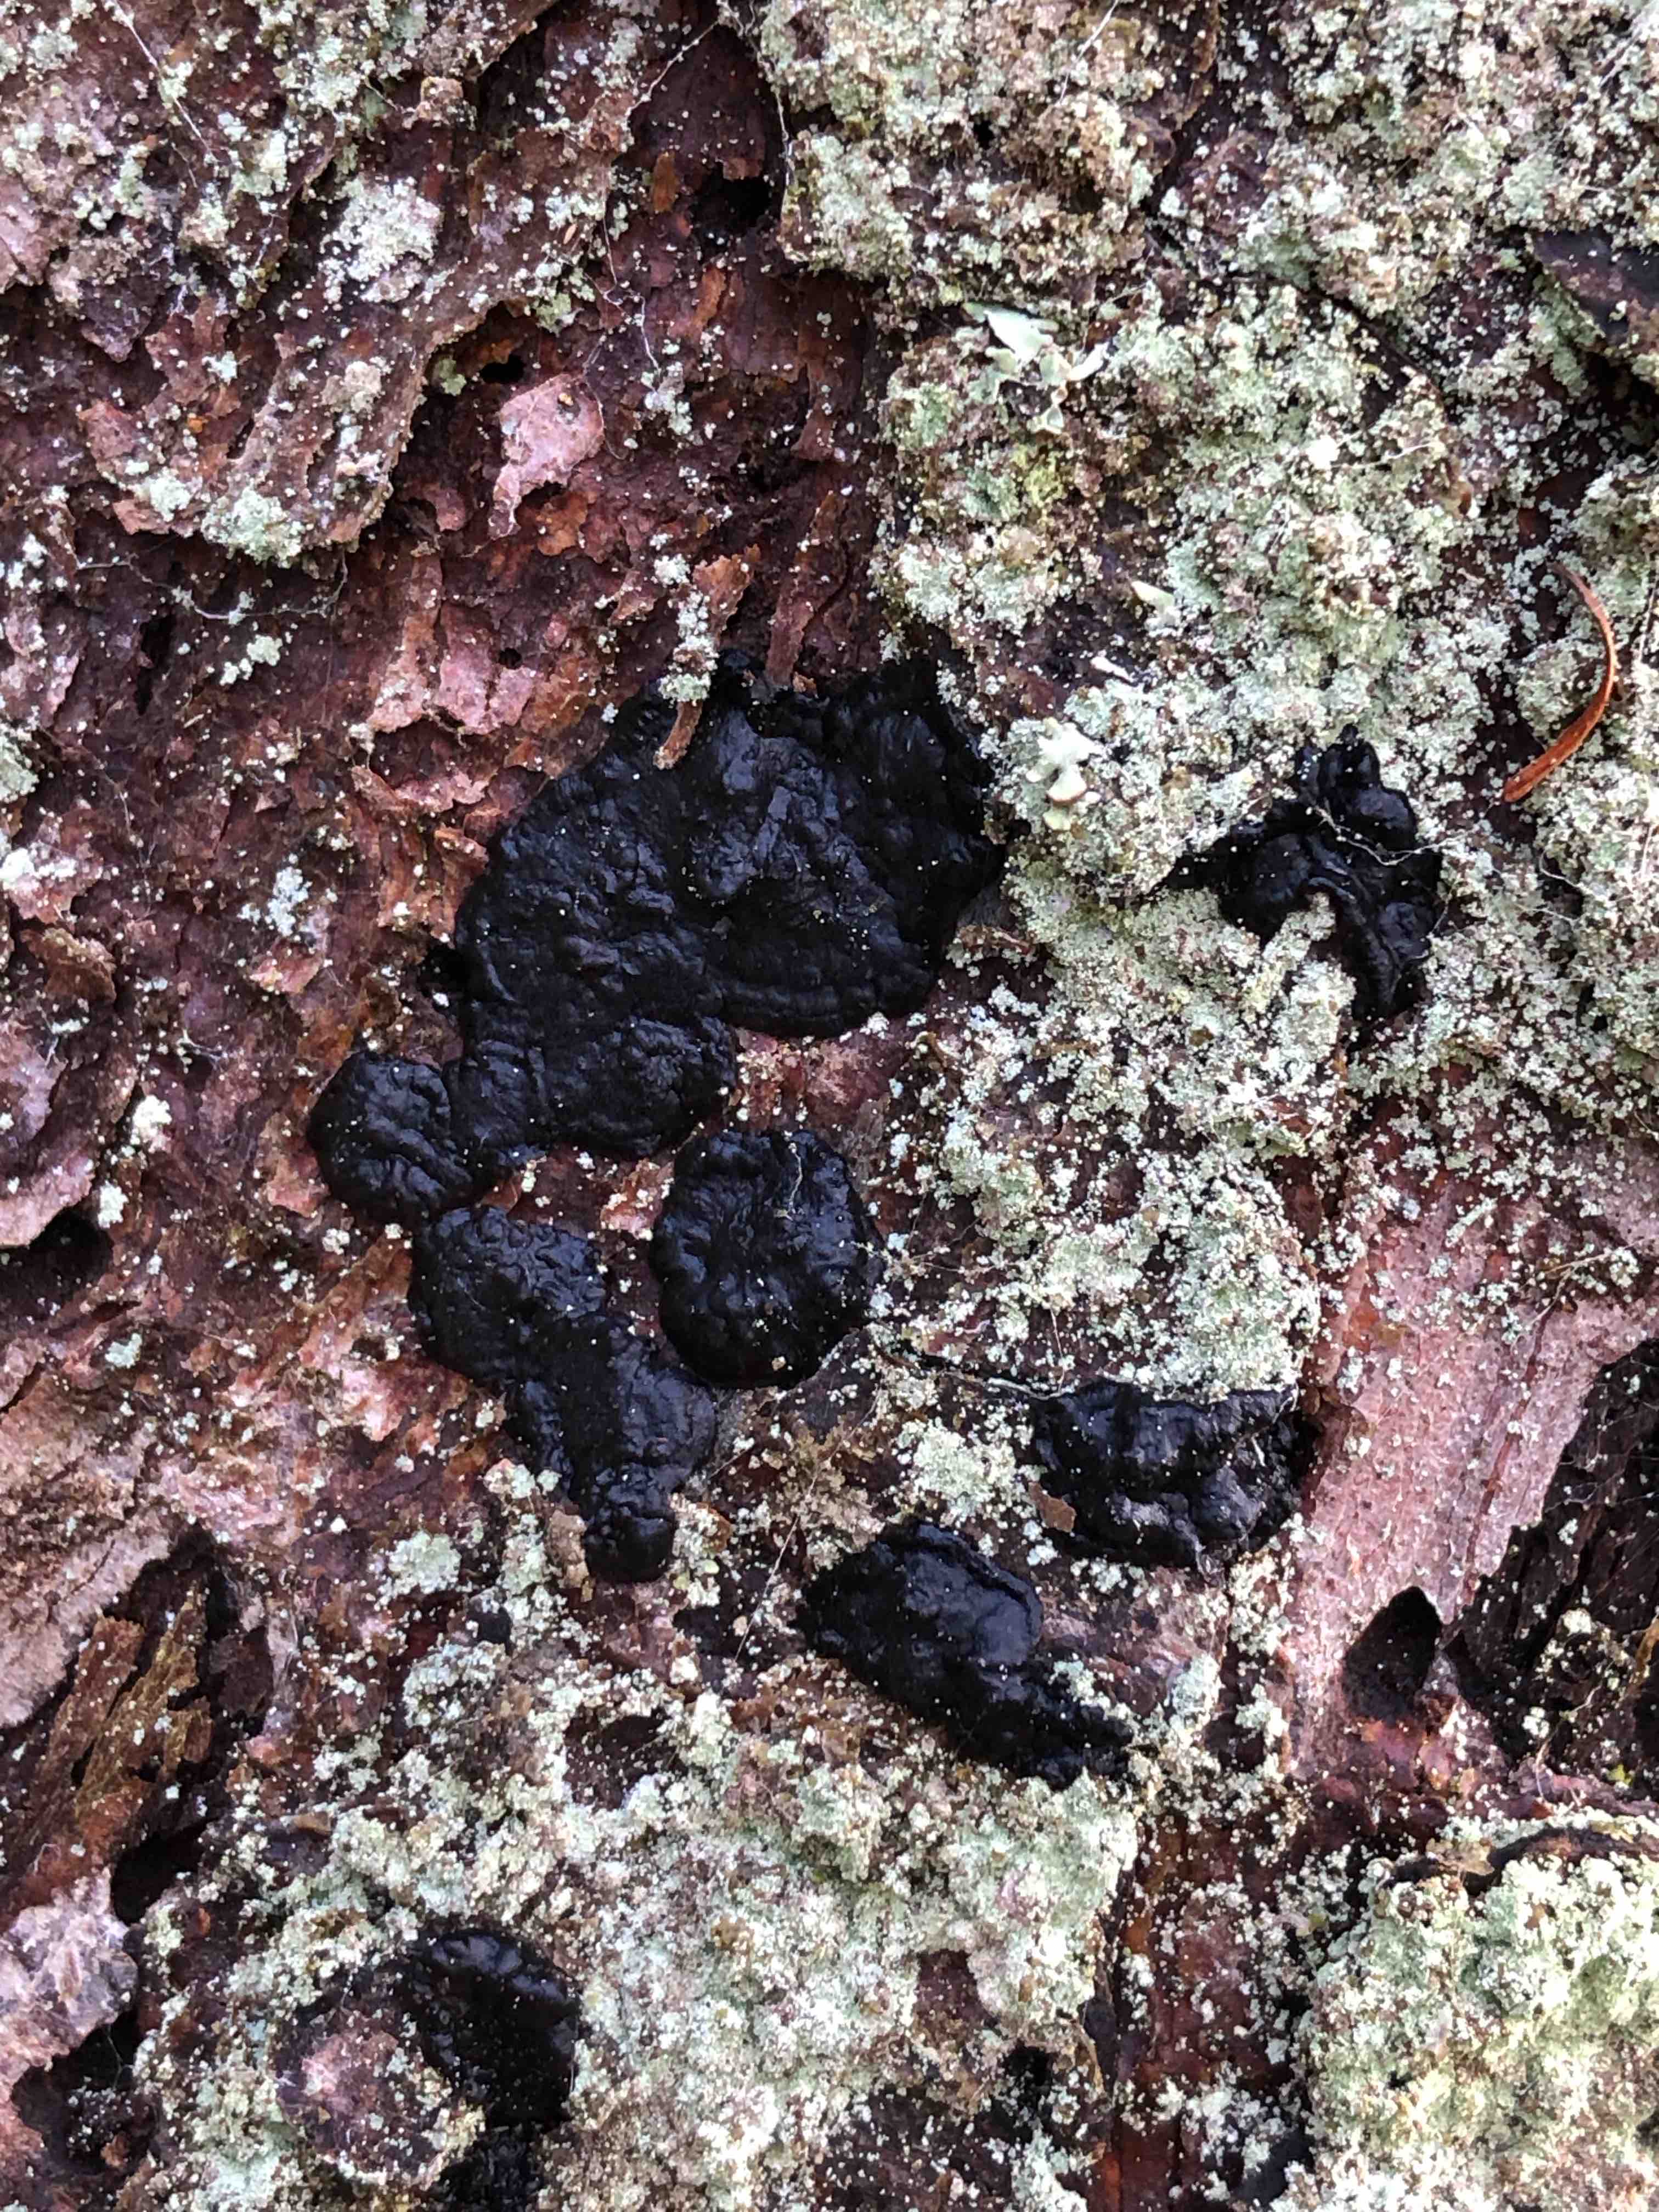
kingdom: Fungi
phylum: Basidiomycota
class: Agaricomycetes
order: Auriculariales
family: Auriculariaceae
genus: Exidia
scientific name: Exidia pithya
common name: gran-bævretop
